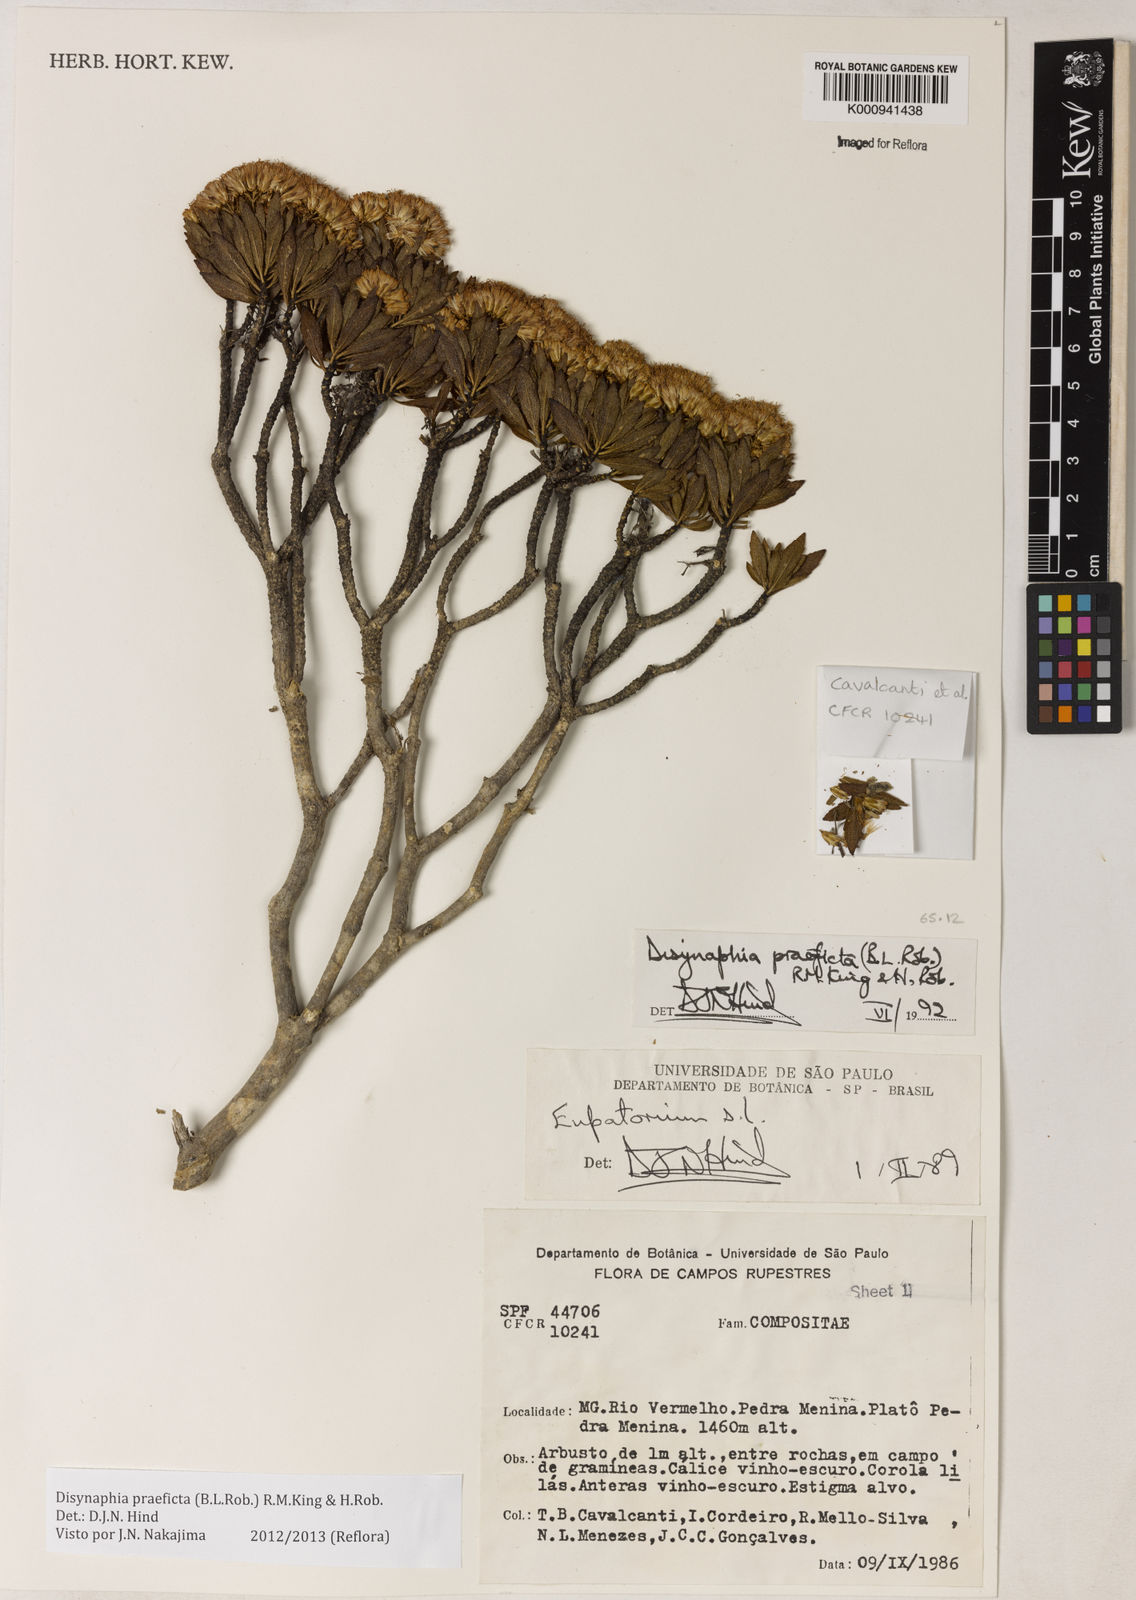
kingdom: Plantae
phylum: Tracheophyta
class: Magnoliopsida
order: Asterales
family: Asteraceae
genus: Disynaphia
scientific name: Disynaphia praeficta
